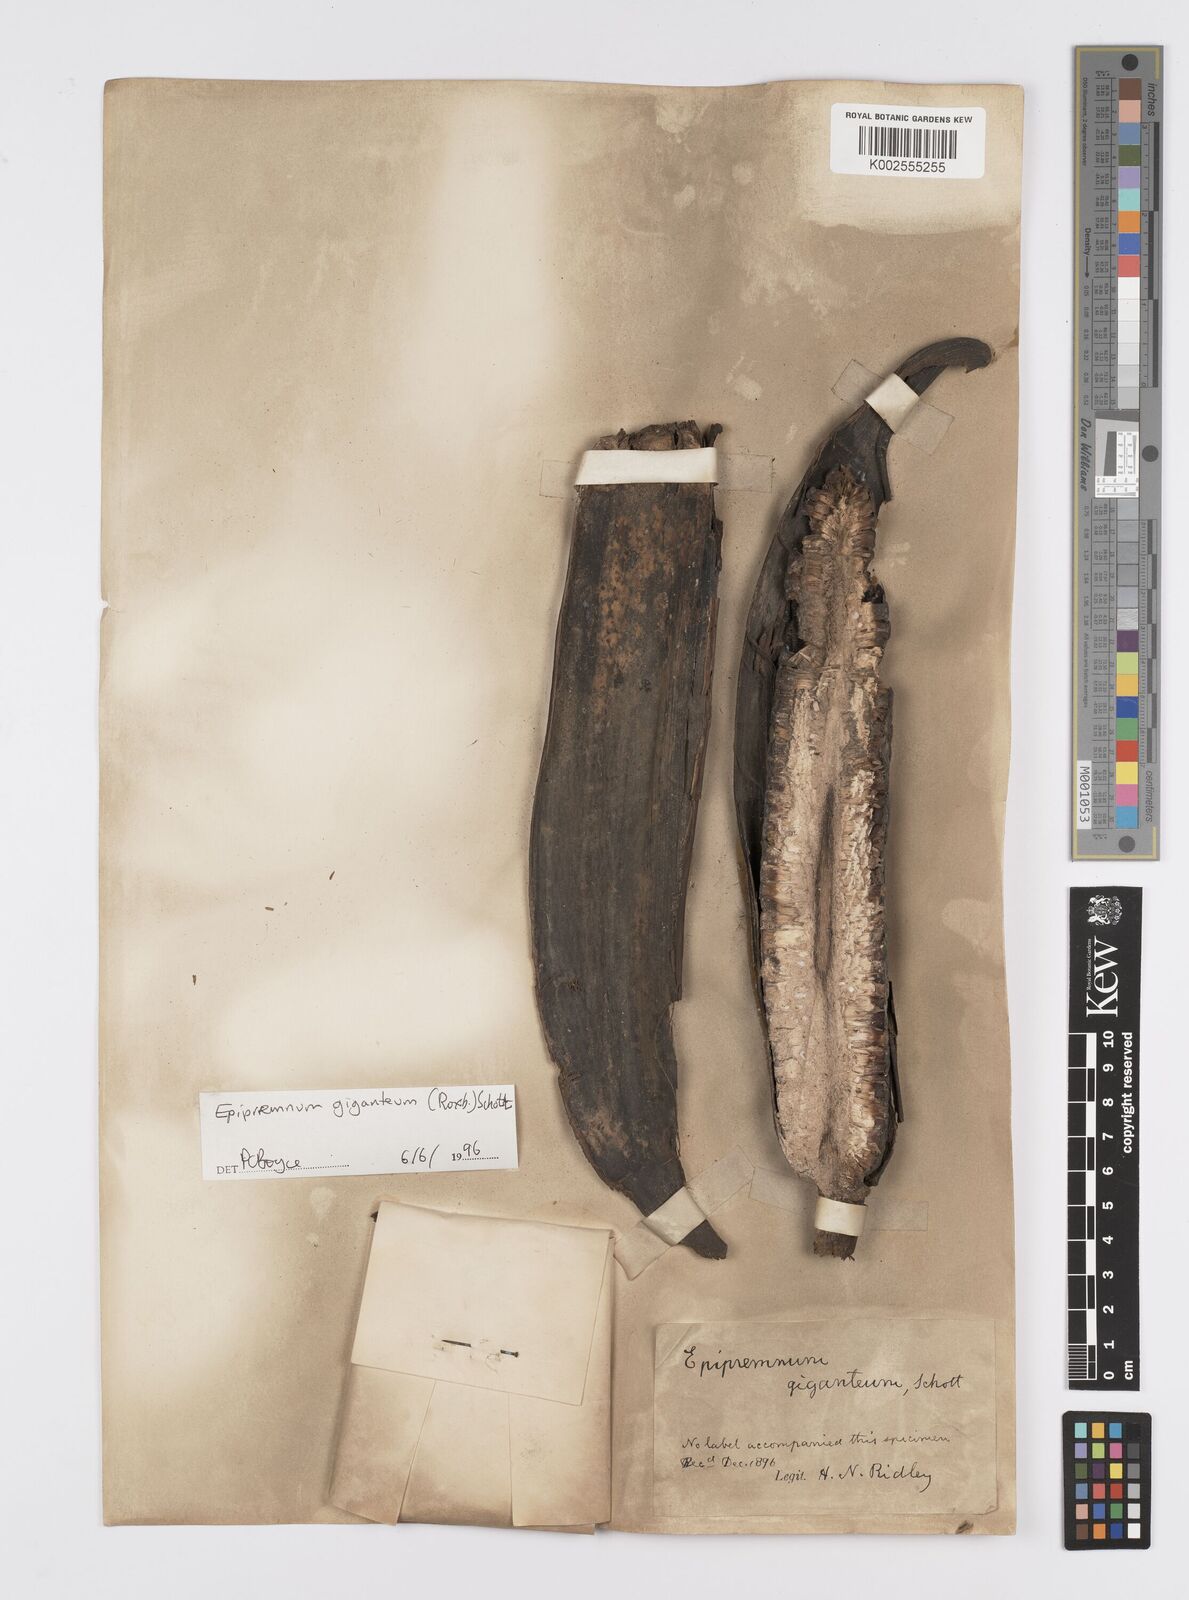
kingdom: Plantae
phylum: Tracheophyta
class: Liliopsida
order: Alismatales
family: Araceae
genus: Epipremnum
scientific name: Epipremnum giganteum
